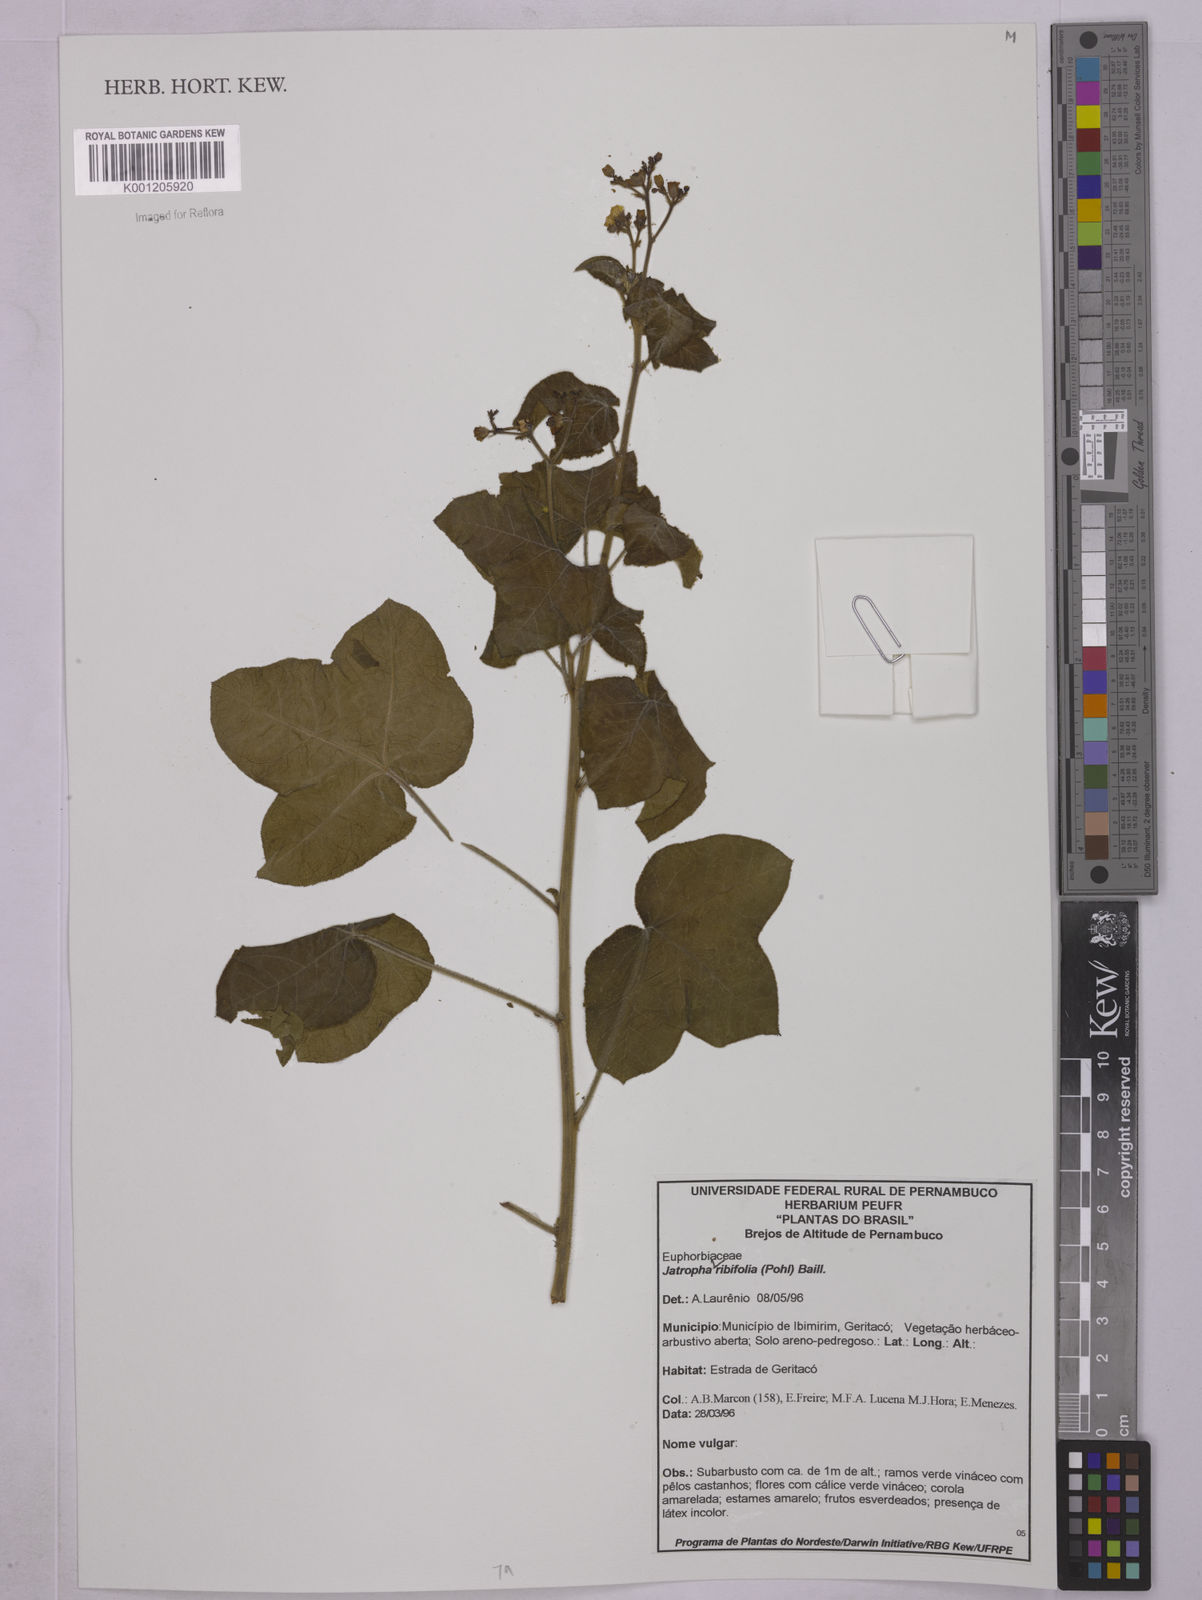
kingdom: Plantae
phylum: Tracheophyta
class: Magnoliopsida
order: Malpighiales
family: Euphorbiaceae
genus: Jatropha
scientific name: Jatropha ribifolia
